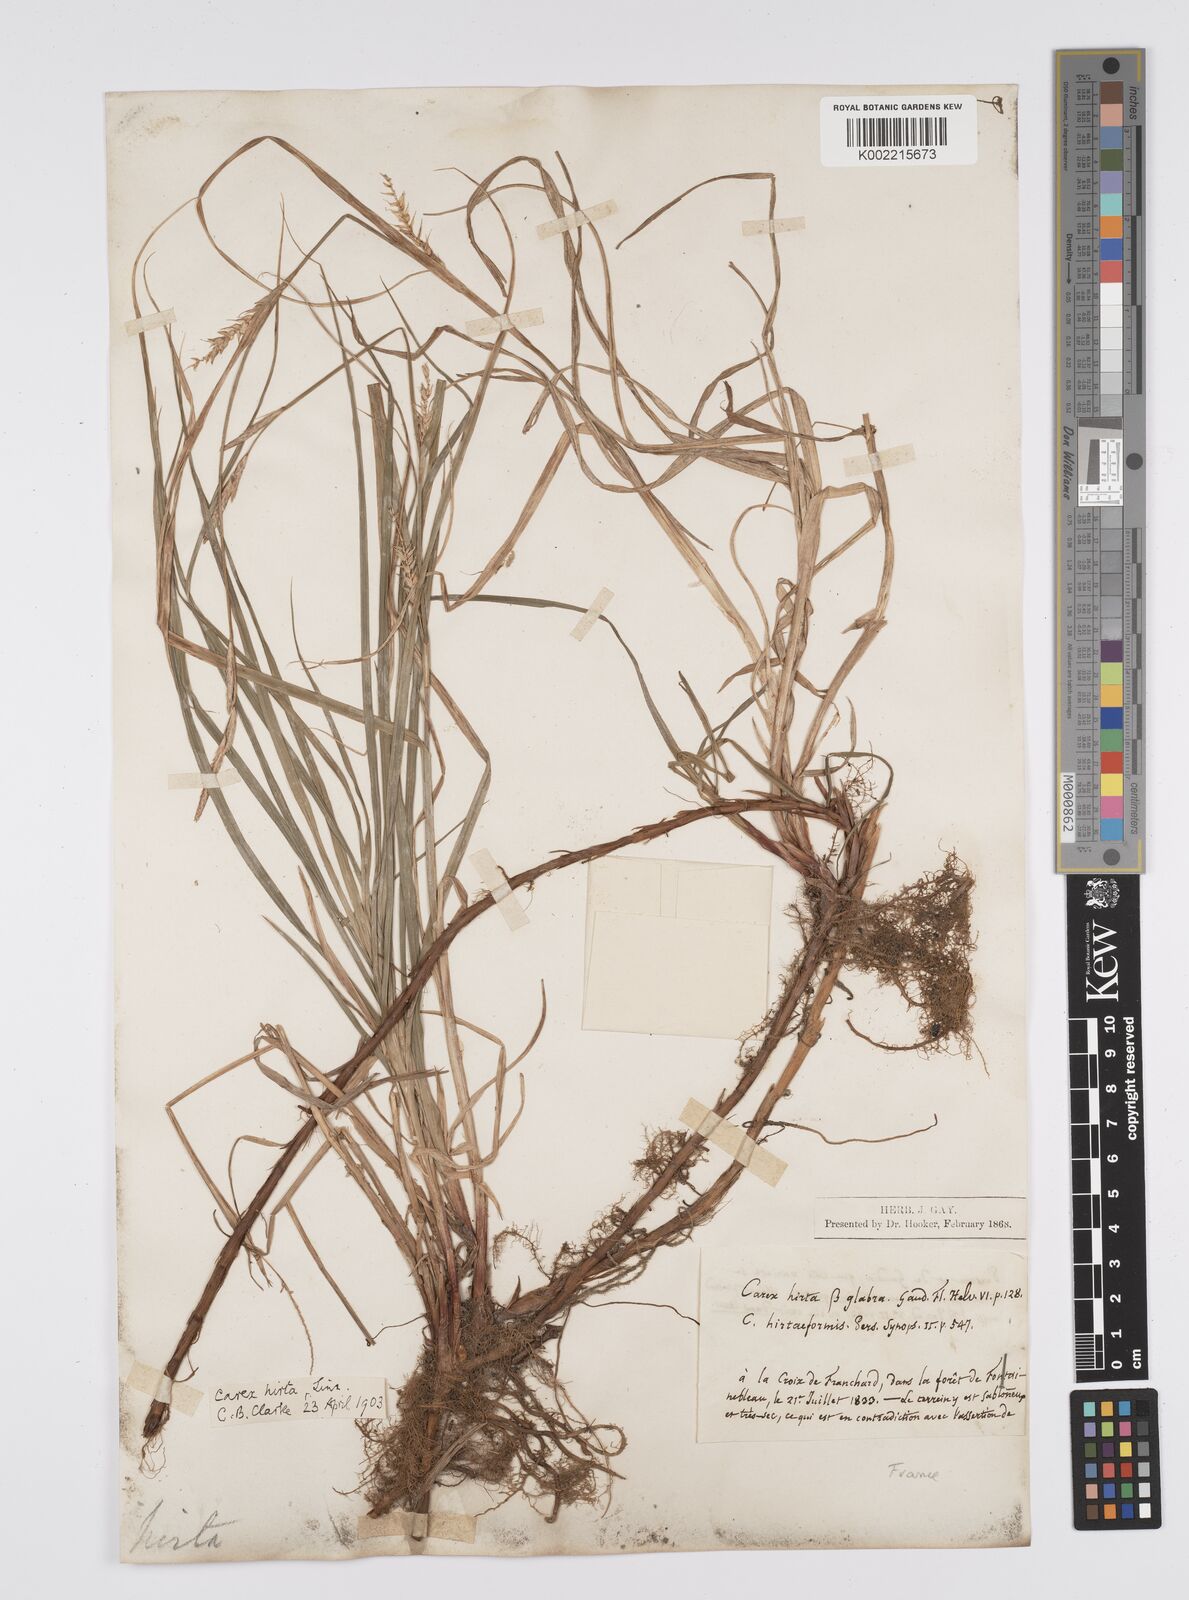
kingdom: Plantae
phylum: Tracheophyta
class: Liliopsida
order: Poales
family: Cyperaceae
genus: Carex
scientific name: Carex hirta
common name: Hairy sedge
